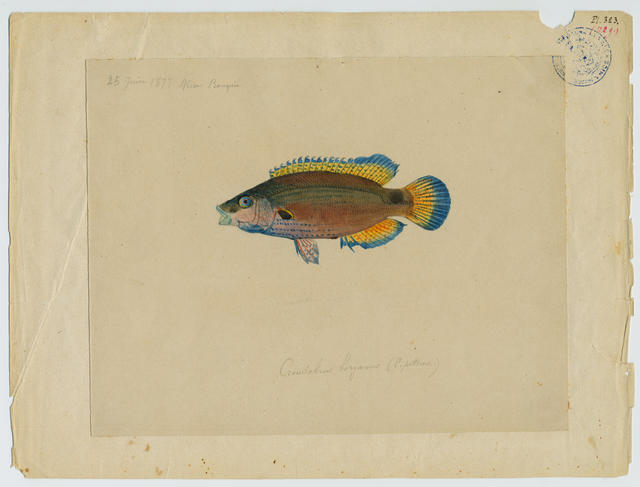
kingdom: Animalia
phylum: Chordata
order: Perciformes
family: Labridae
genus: Symphodus
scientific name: Symphodus mediterraneus
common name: Axillary wrasse
